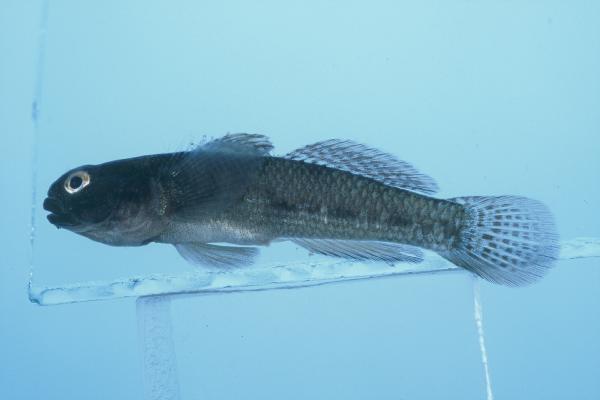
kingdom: Animalia
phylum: Chordata
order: Perciformes
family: Gobiidae
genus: Bathygobius
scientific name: Bathygobius cocosensis
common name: Cocos frillgoby
